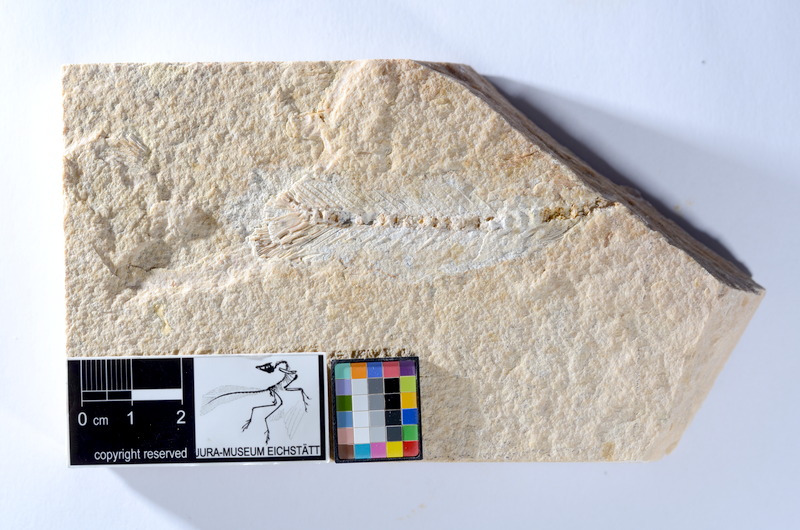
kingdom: Animalia
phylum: Chordata
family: Ascalaboidae
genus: Tharsis
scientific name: Tharsis dubius
